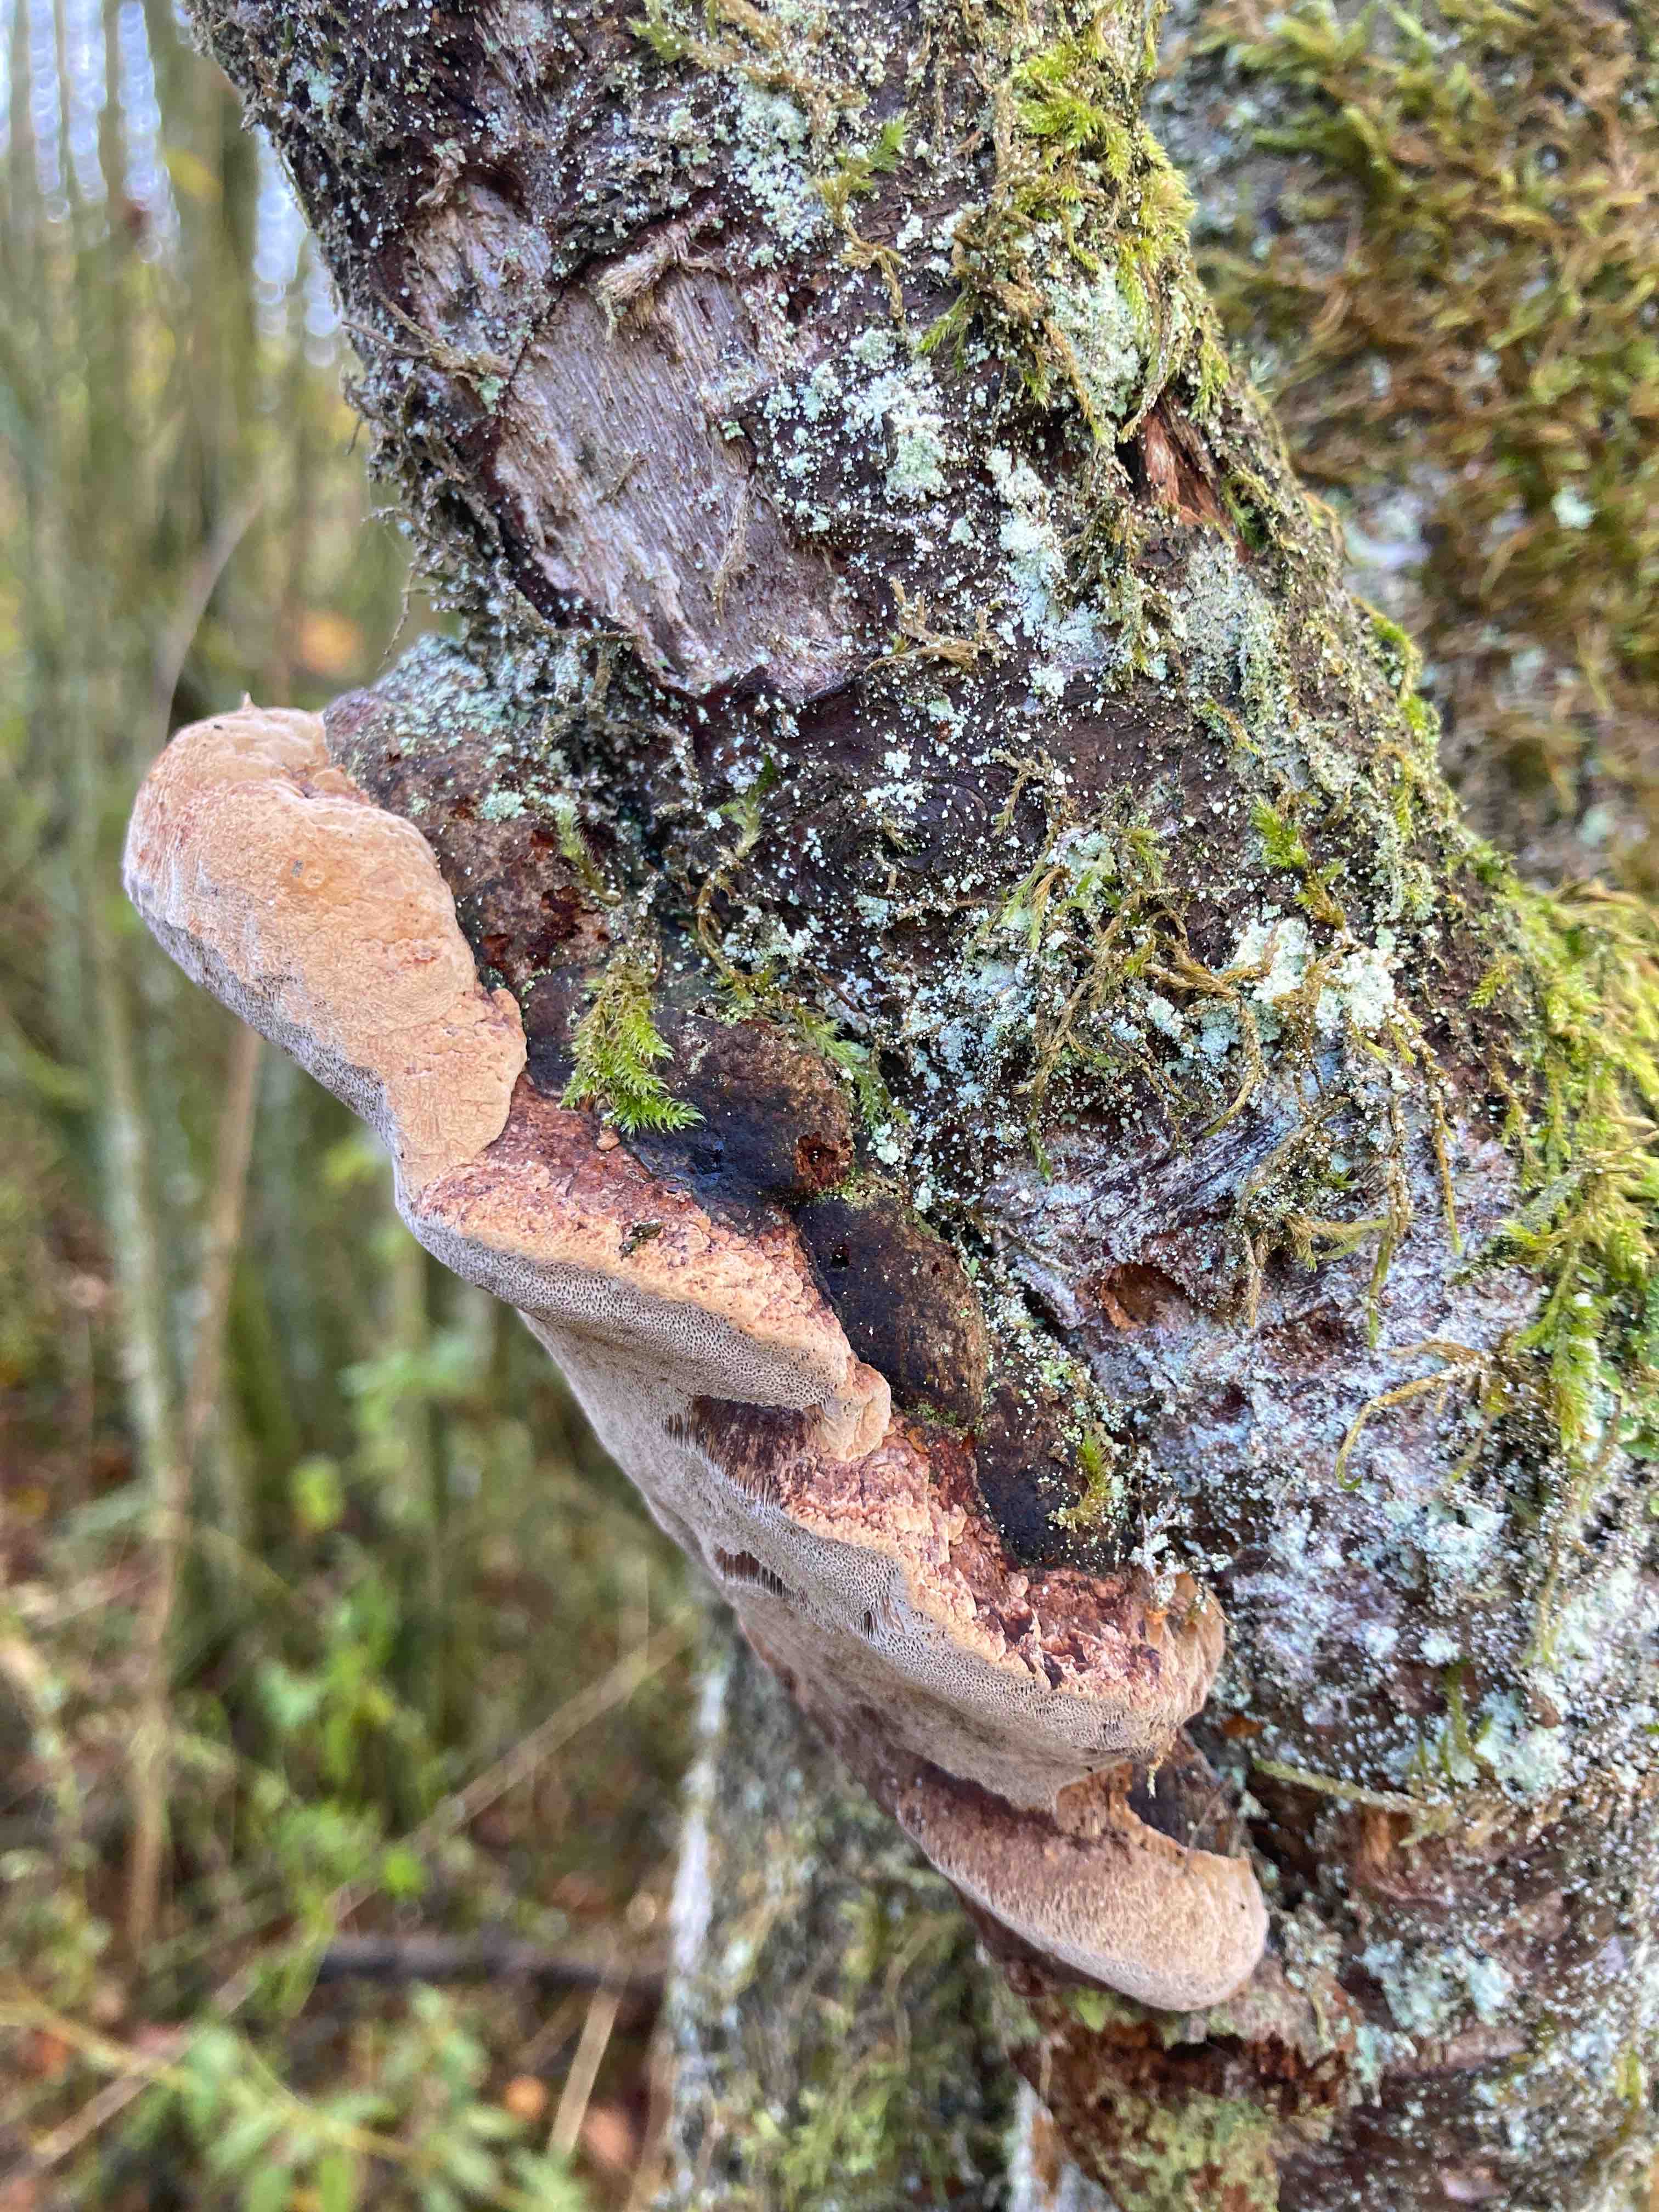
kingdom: Fungi
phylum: Basidiomycota
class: Agaricomycetes
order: Hymenochaetales
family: Hymenochaetaceae
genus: Phellinus
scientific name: Phellinus pomaceus
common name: blomme-ildporesvamp
